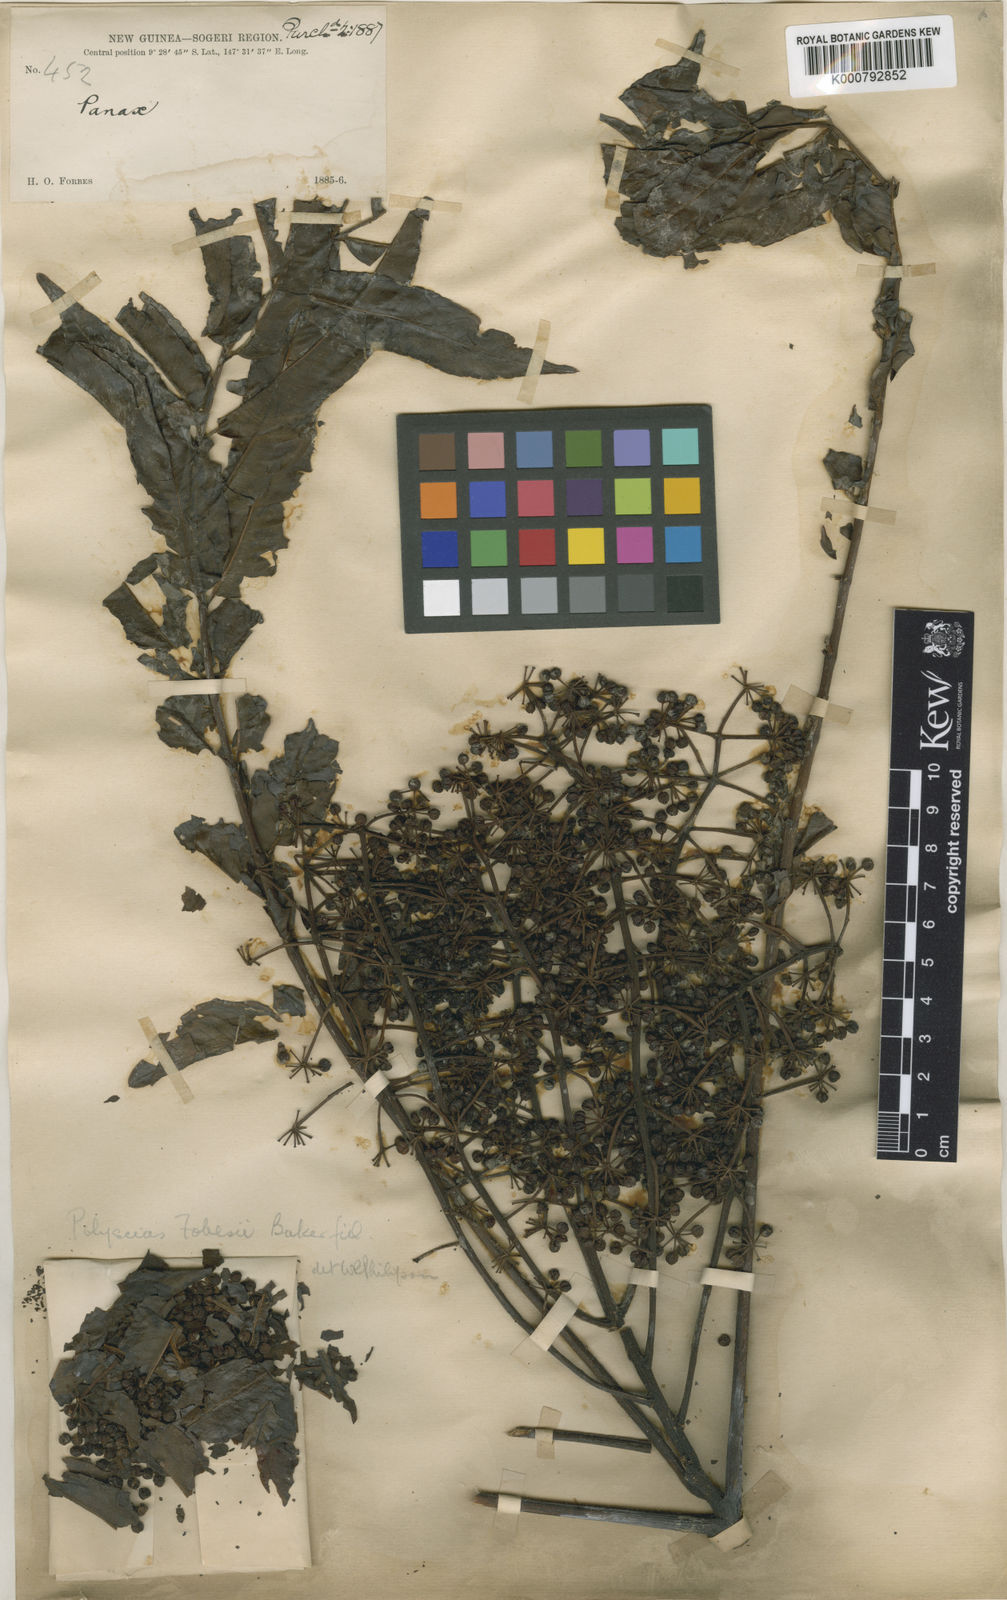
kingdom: Plantae
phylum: Tracheophyta
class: Magnoliopsida
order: Apiales
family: Araliaceae
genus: Polyscias
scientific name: Polyscias ledermannii
